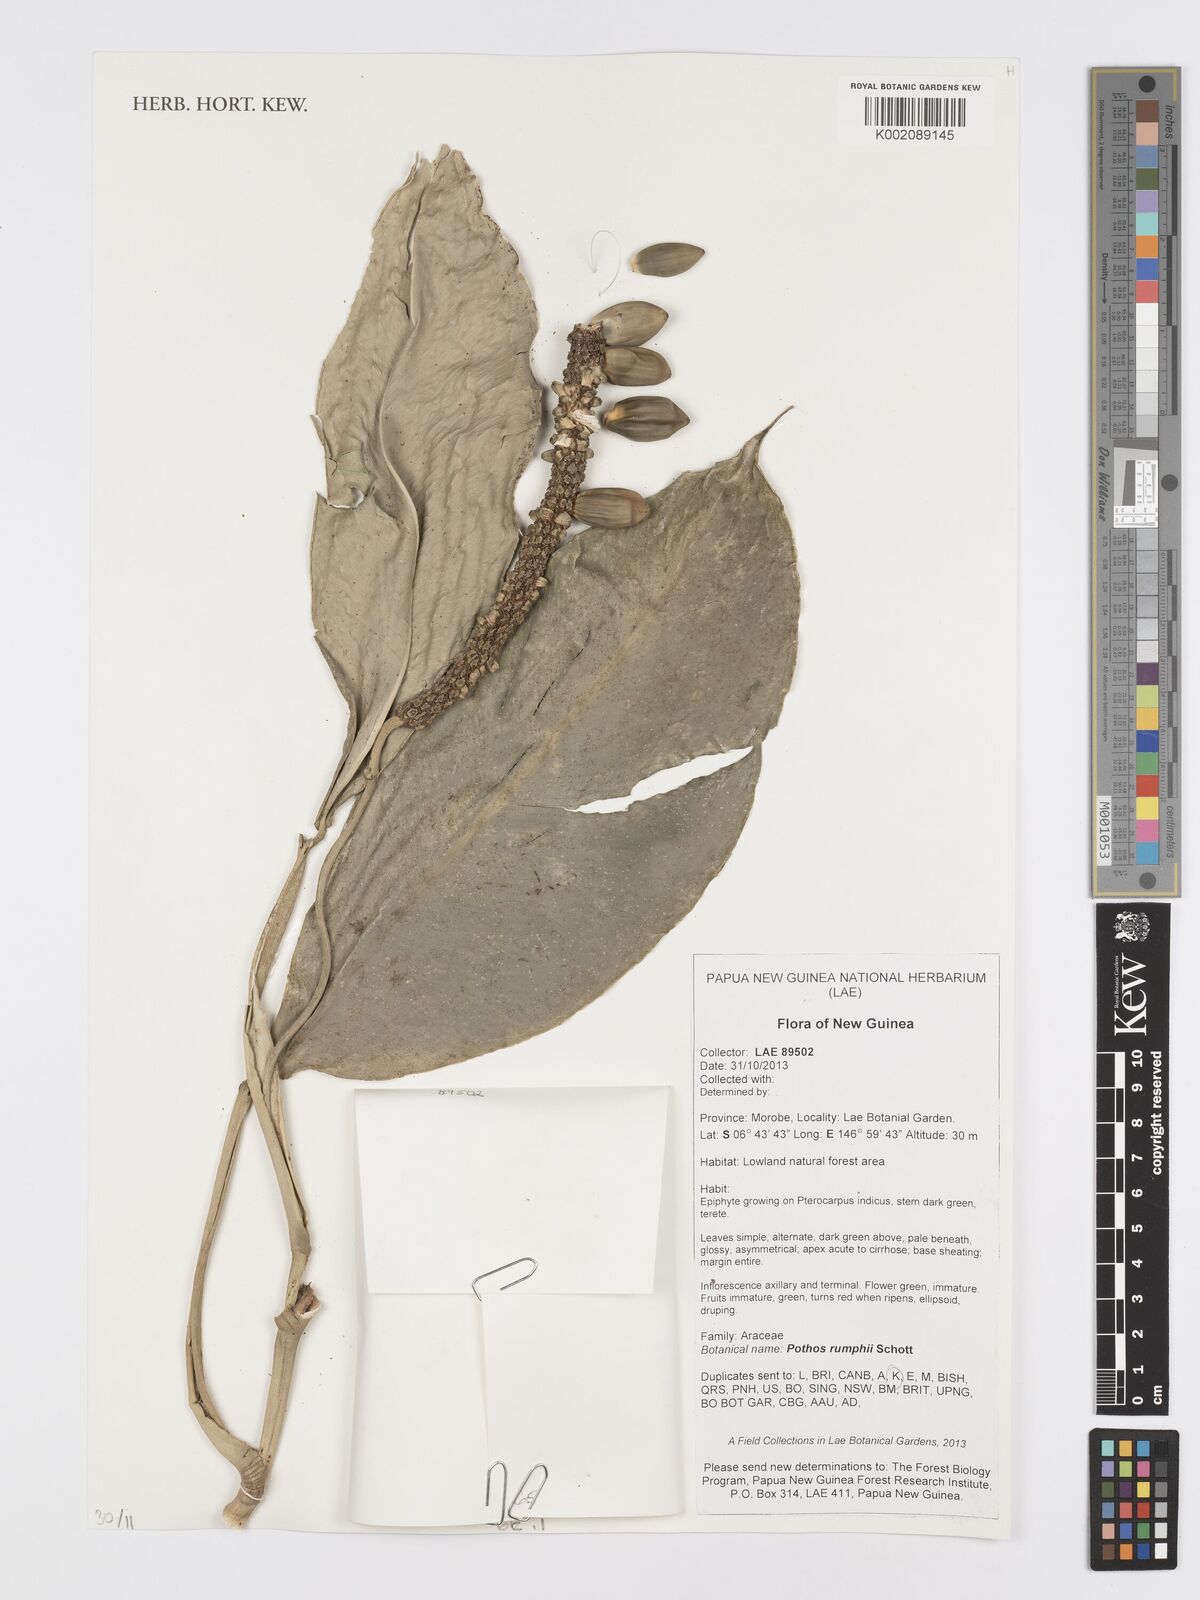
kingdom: Plantae
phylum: Tracheophyta
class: Liliopsida
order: Alismatales
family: Araceae
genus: Pothos
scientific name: Pothos tener
